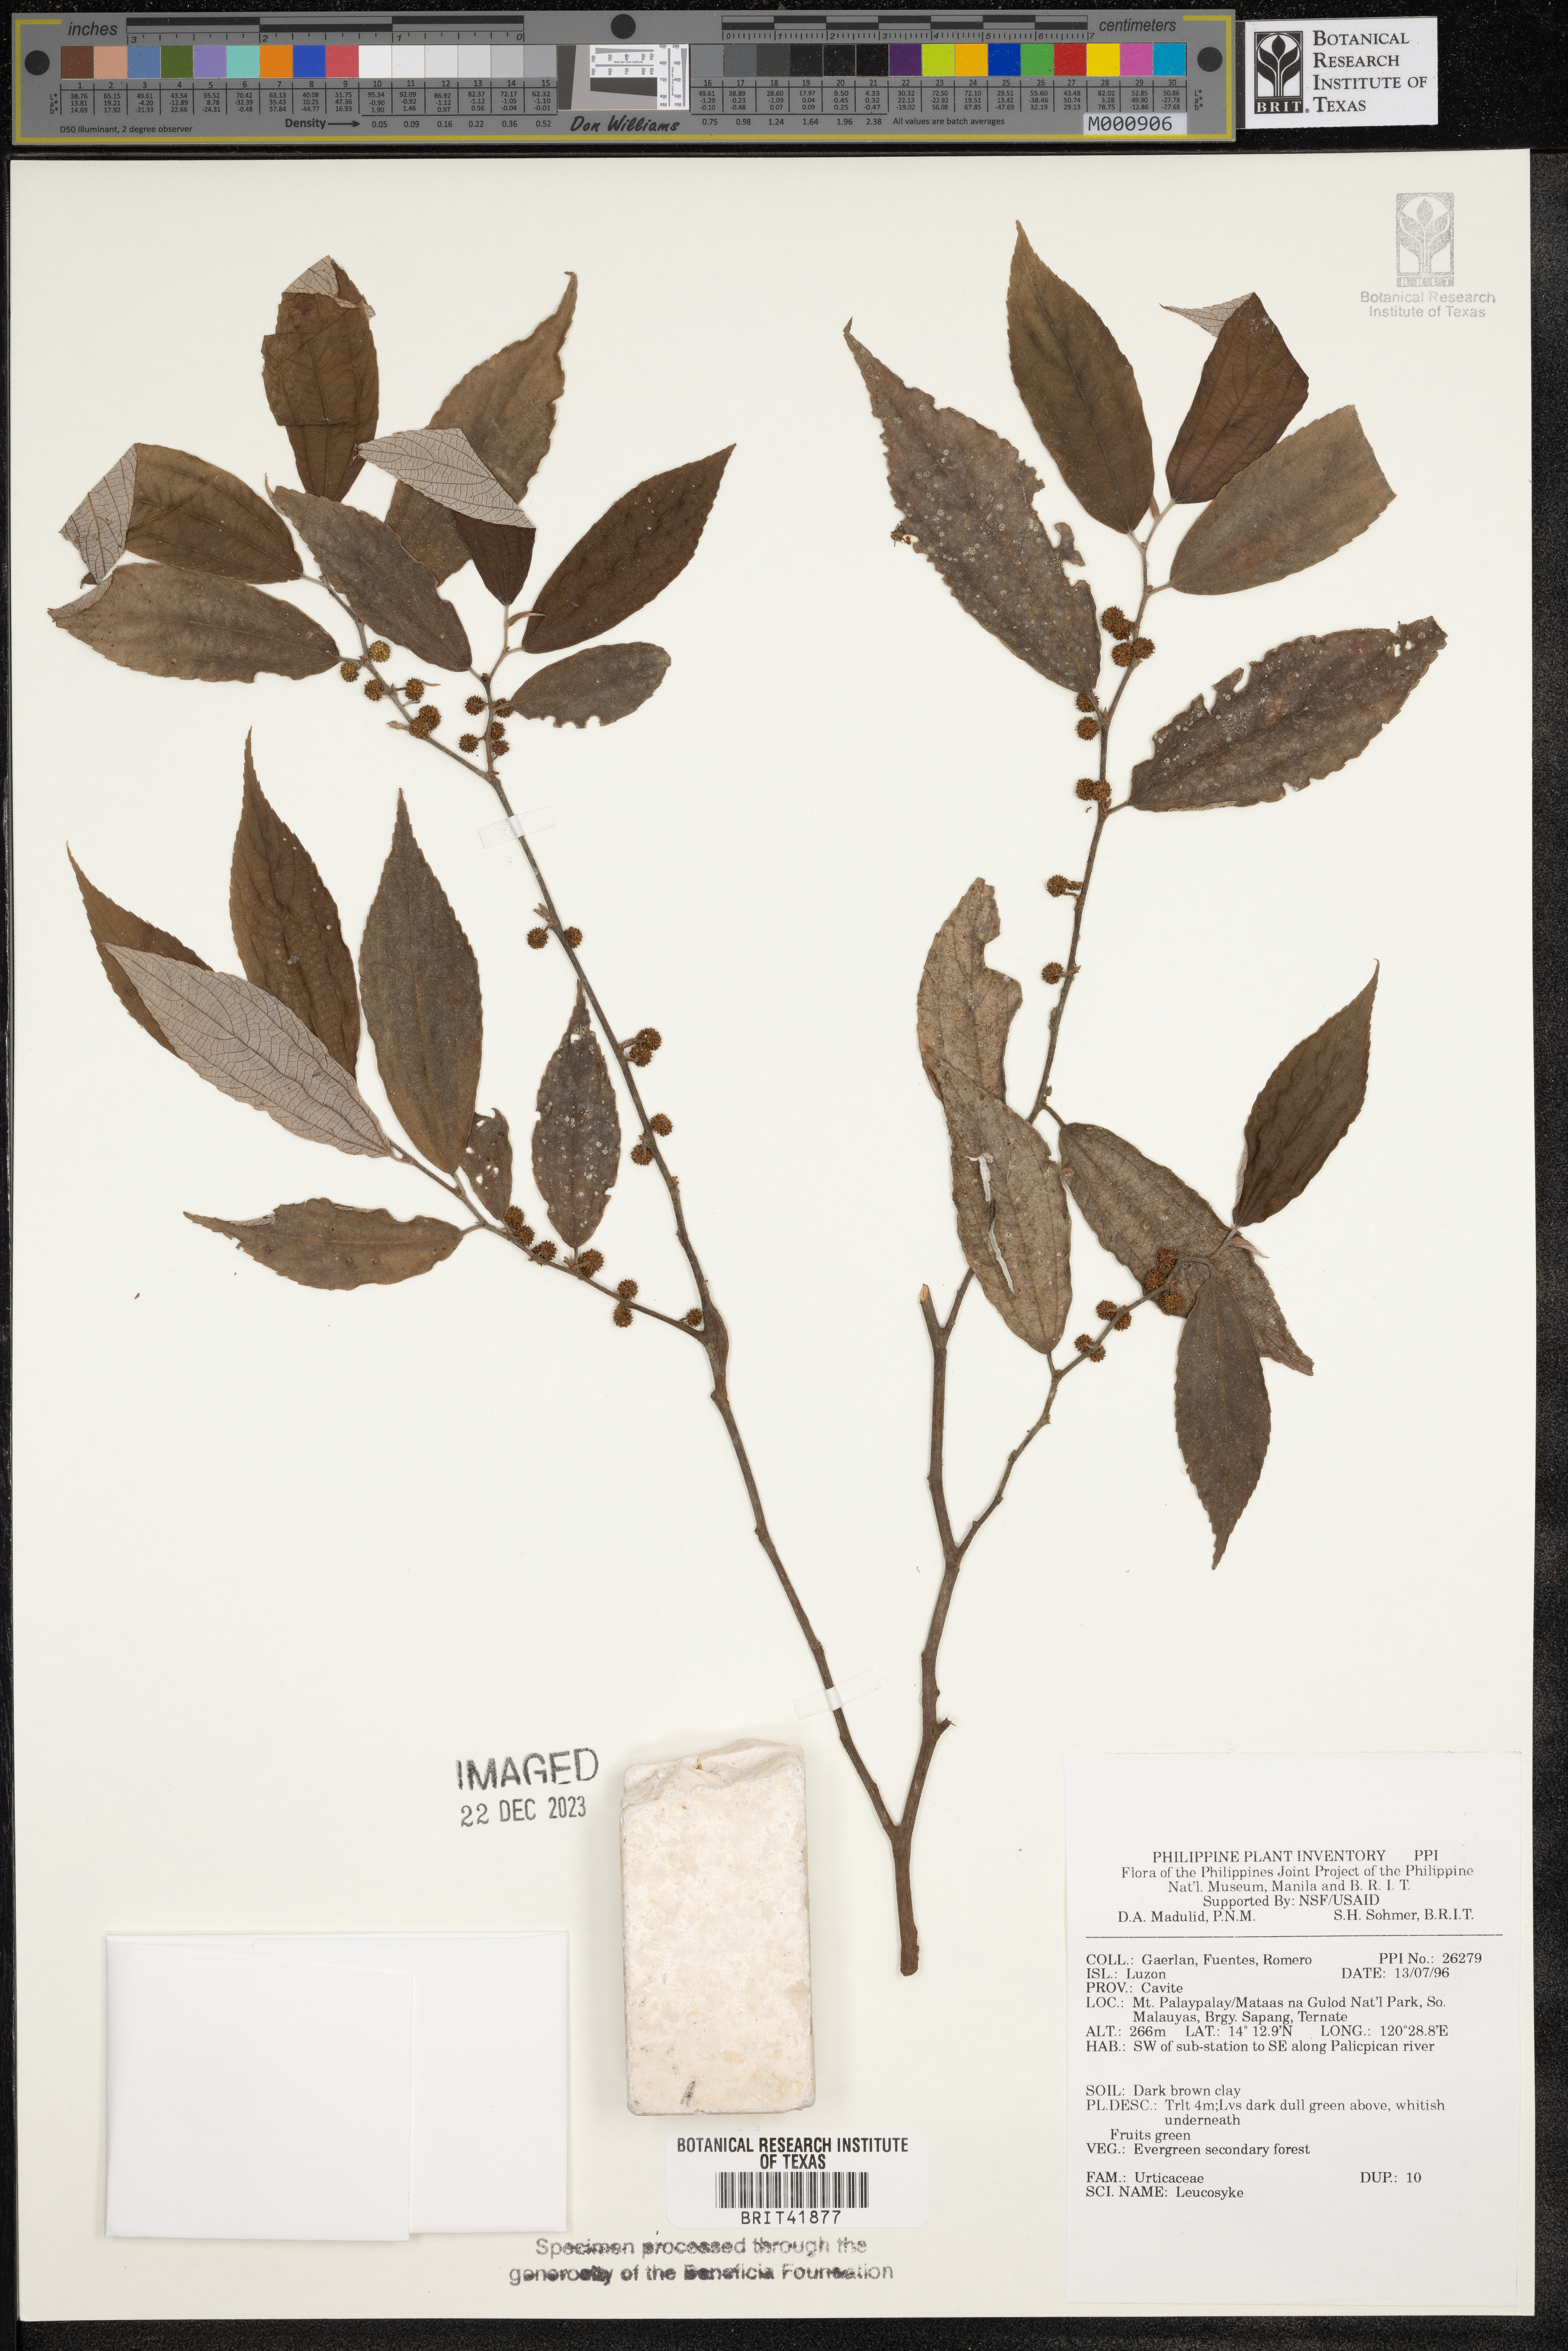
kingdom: Plantae
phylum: Tracheophyta
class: Magnoliopsida
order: Rosales
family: Urticaceae
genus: Leucosyke
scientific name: Leucosyke
